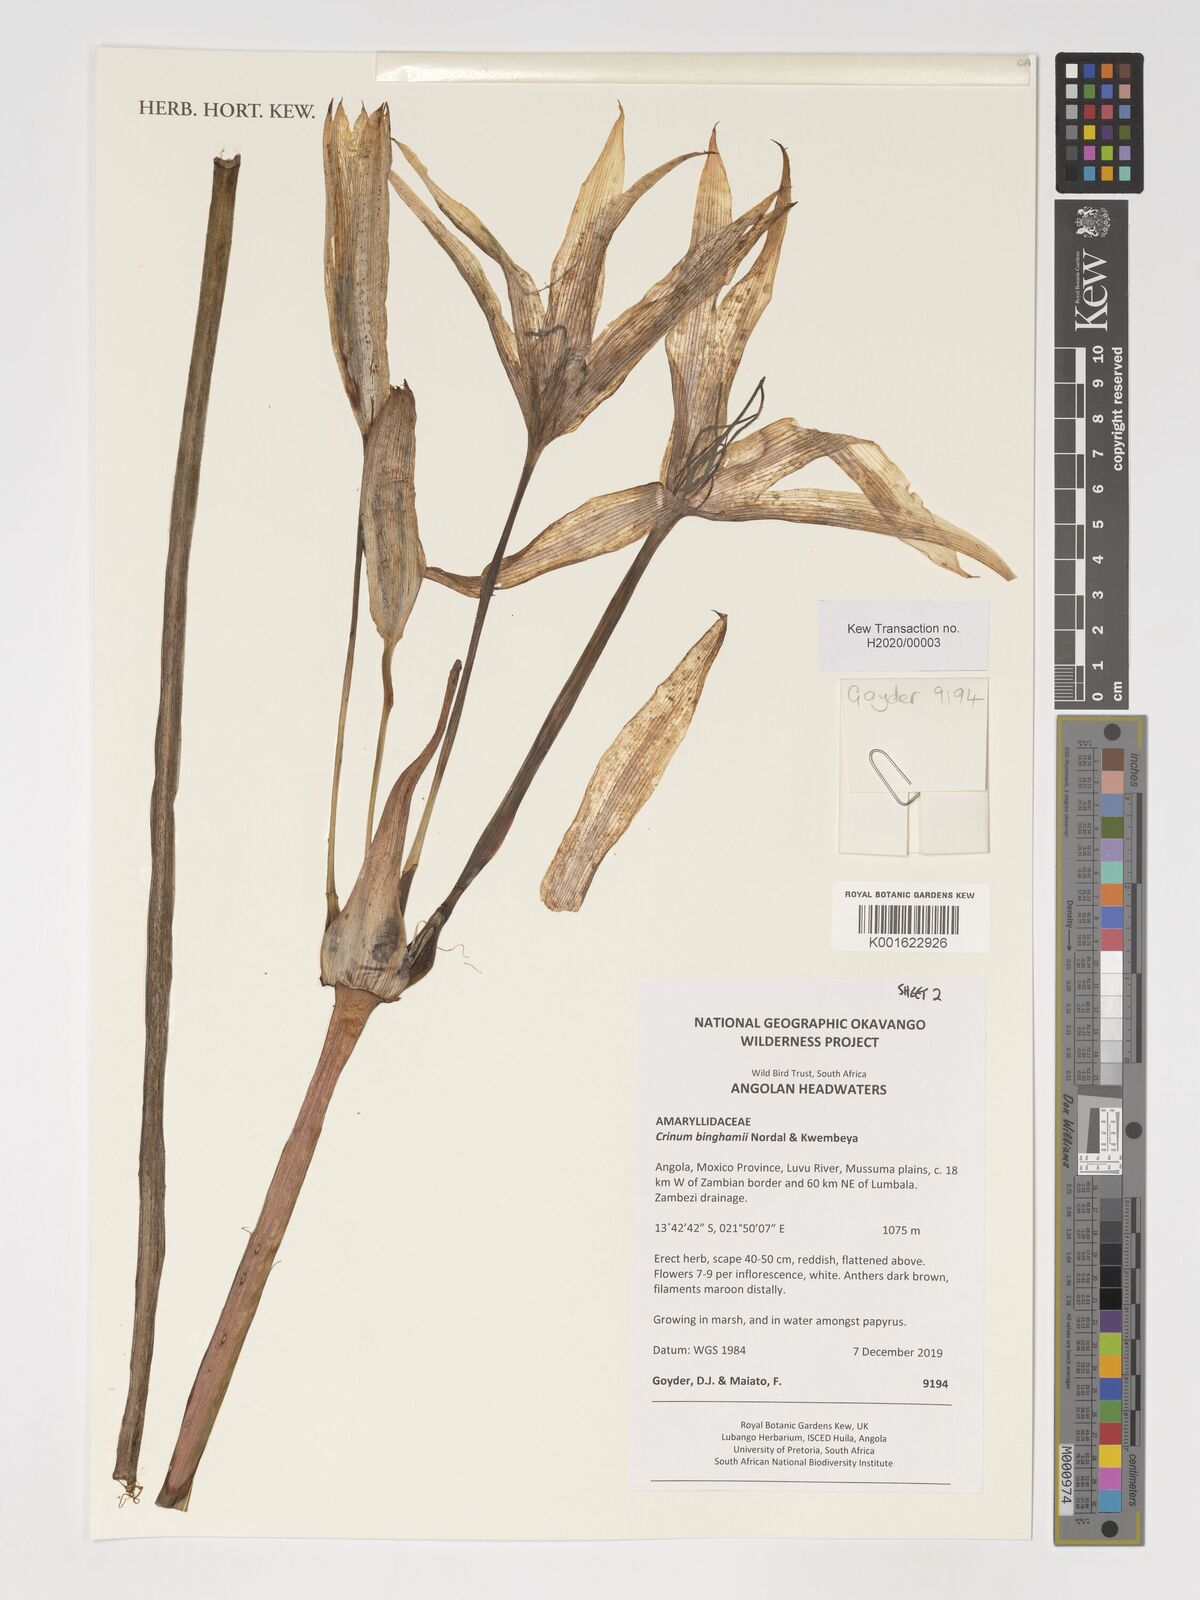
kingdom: Plantae
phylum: Tracheophyta
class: Liliopsida
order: Asparagales
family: Amaryllidaceae
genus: Crinum
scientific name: Crinum binghamii
